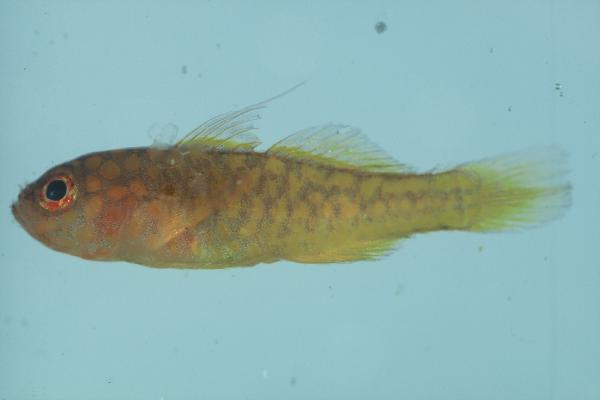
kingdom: Animalia
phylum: Chordata
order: Perciformes
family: Gobiidae
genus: Trimma
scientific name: Trimma flammeum
